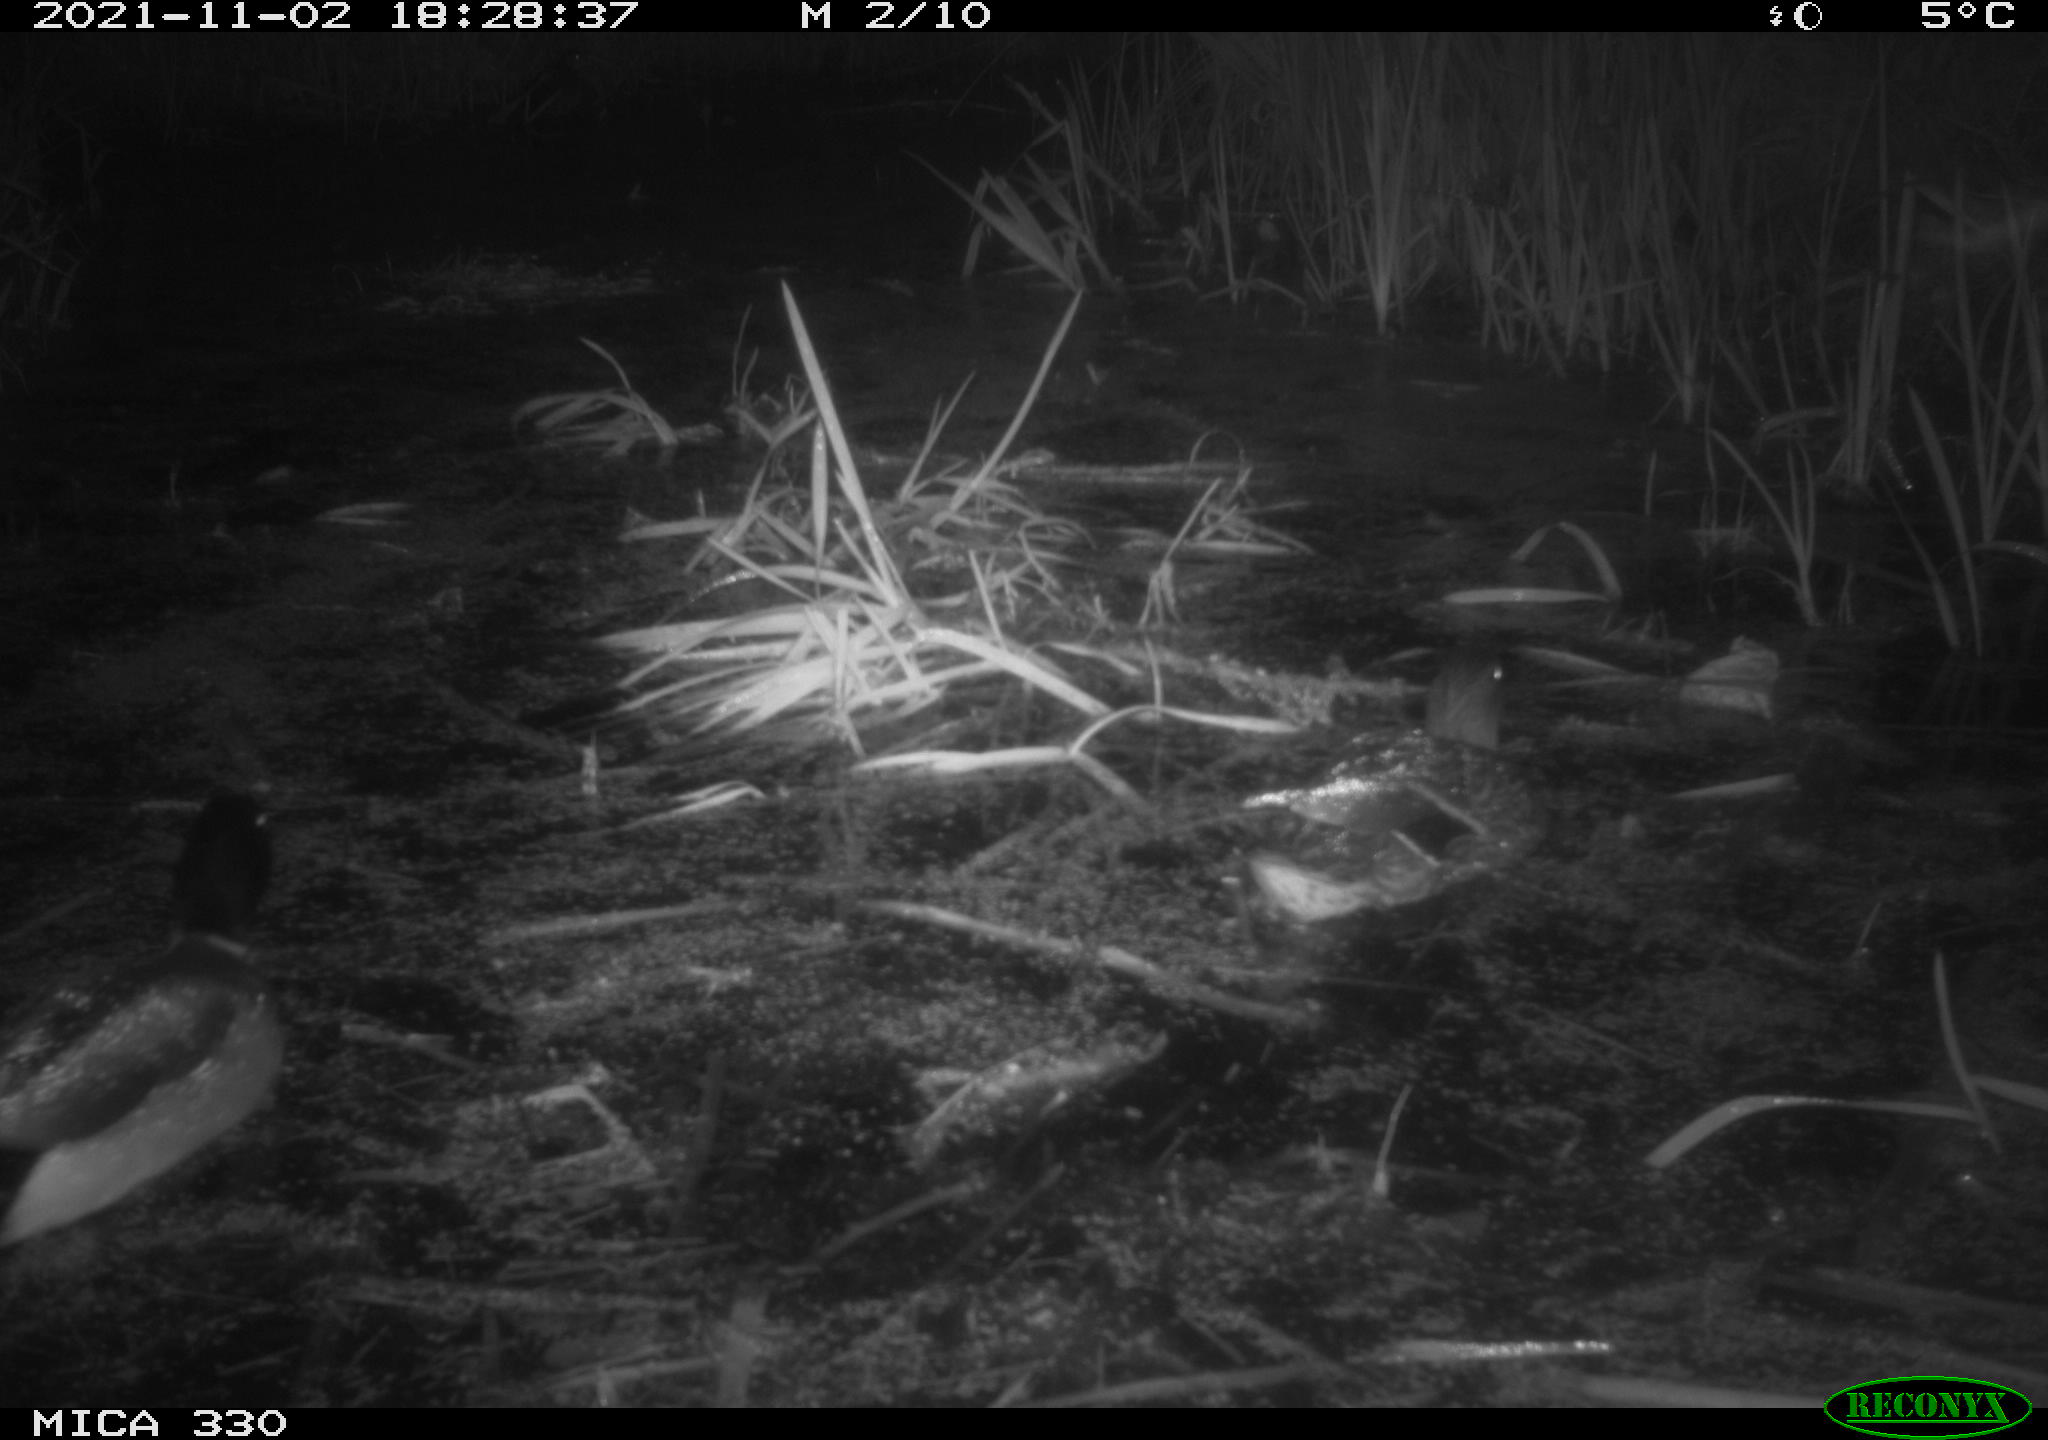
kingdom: Animalia
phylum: Chordata
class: Aves
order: Anseriformes
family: Anatidae
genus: Anas
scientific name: Anas platyrhynchos
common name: Mallard
